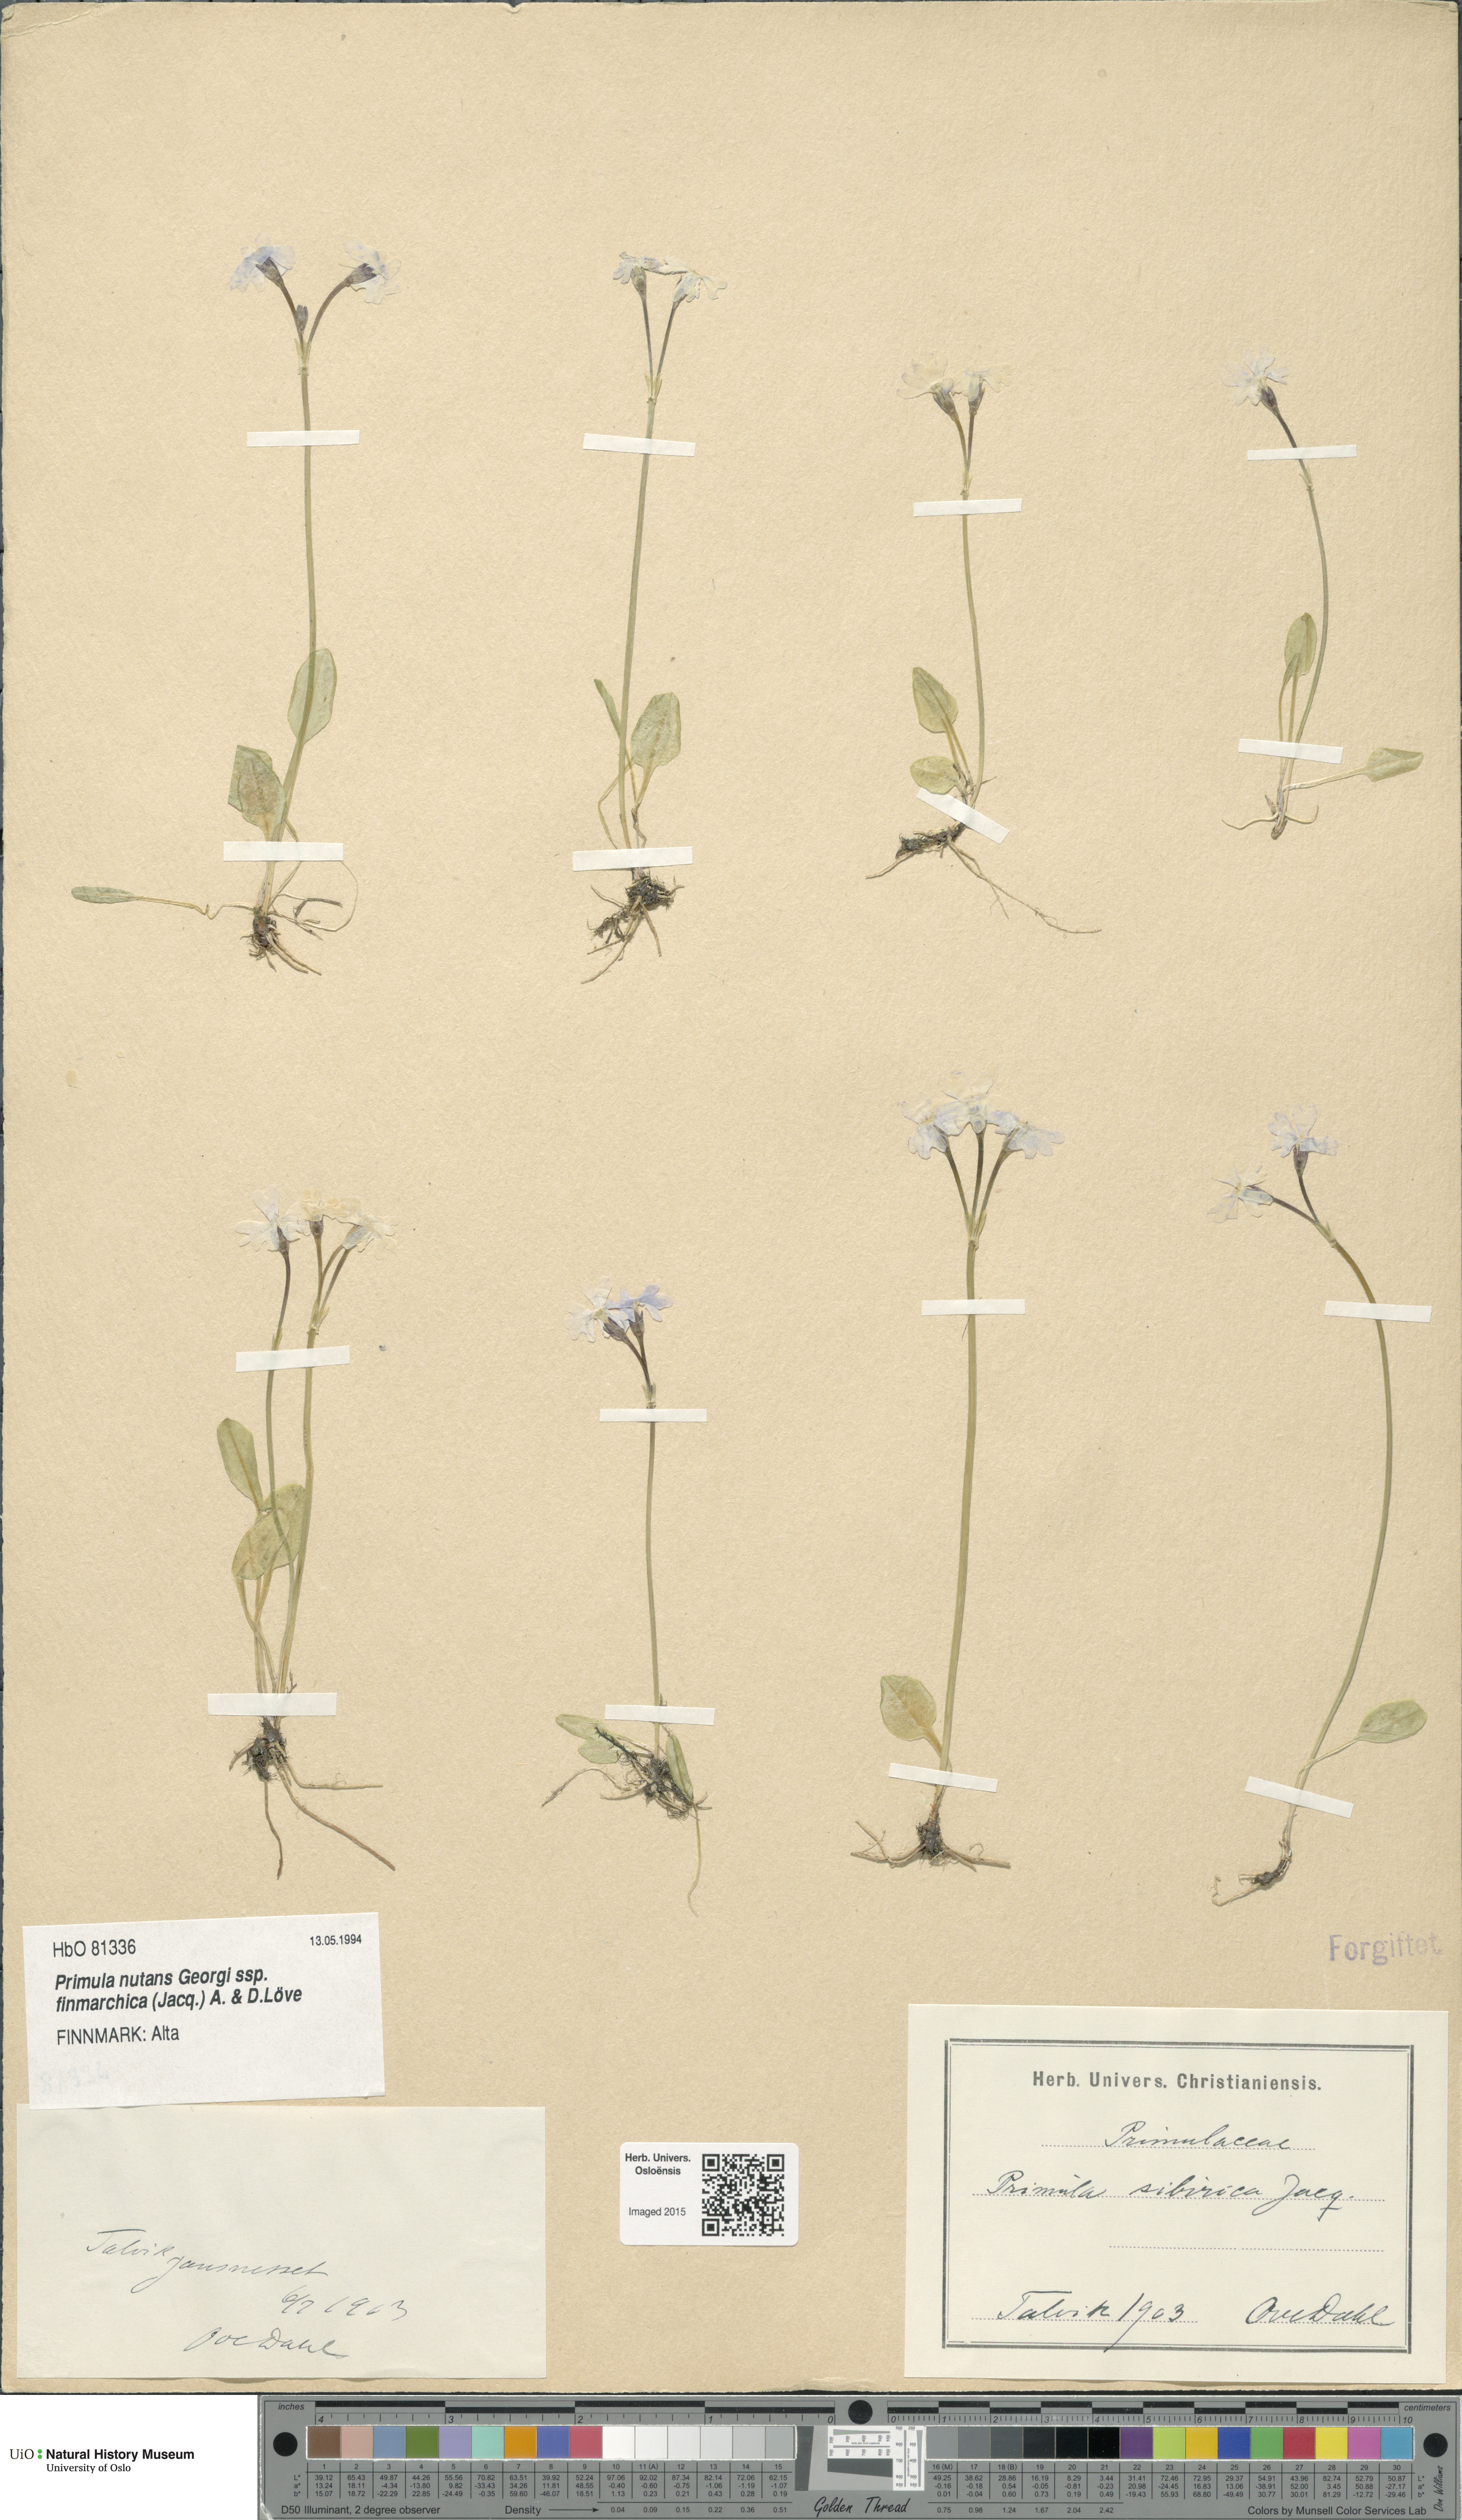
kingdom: Plantae
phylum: Tracheophyta
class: Magnoliopsida
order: Ericales
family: Primulaceae
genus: Primula
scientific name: Primula nutans
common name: Siberian primrose
